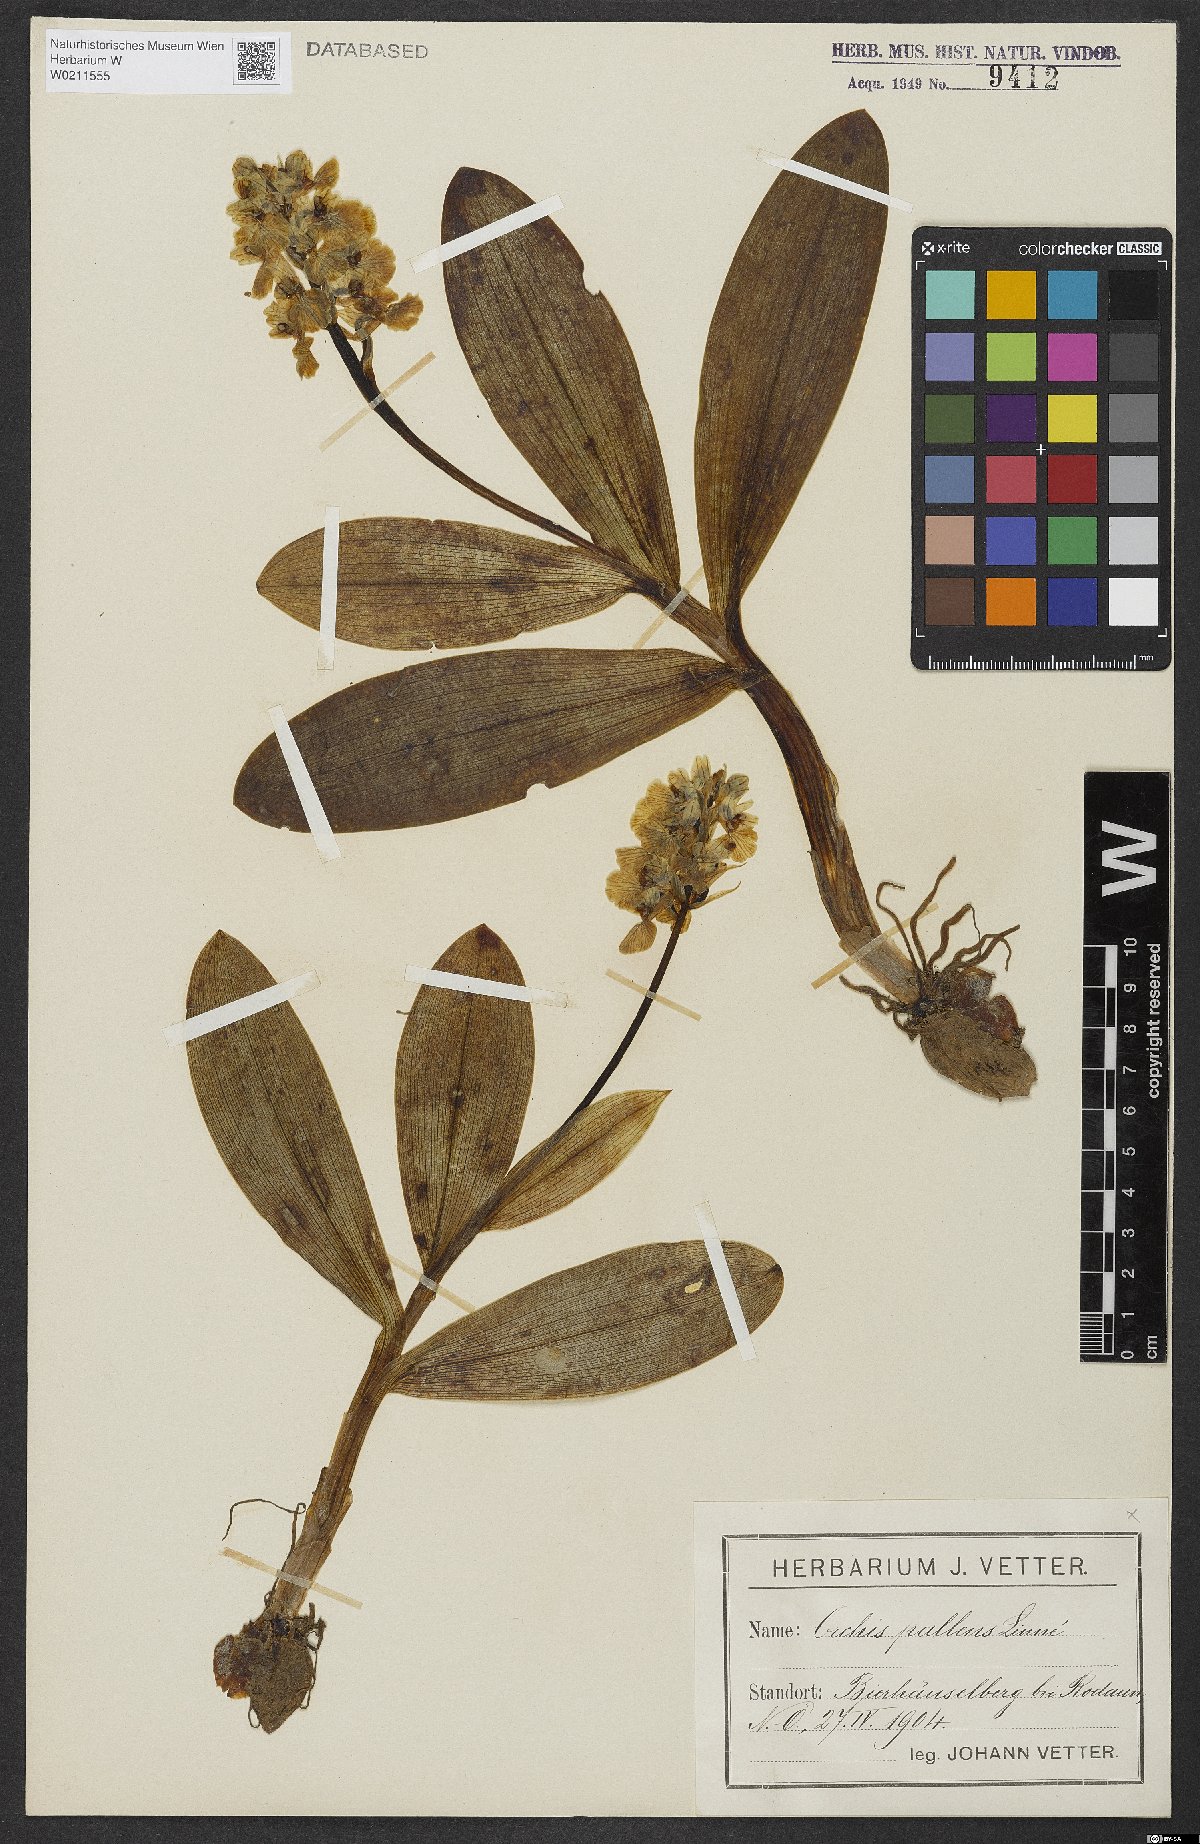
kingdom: Plantae
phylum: Tracheophyta
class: Liliopsida
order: Asparagales
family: Orchidaceae
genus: Orchis
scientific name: Orchis pallens
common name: Pale-flowered orchid
